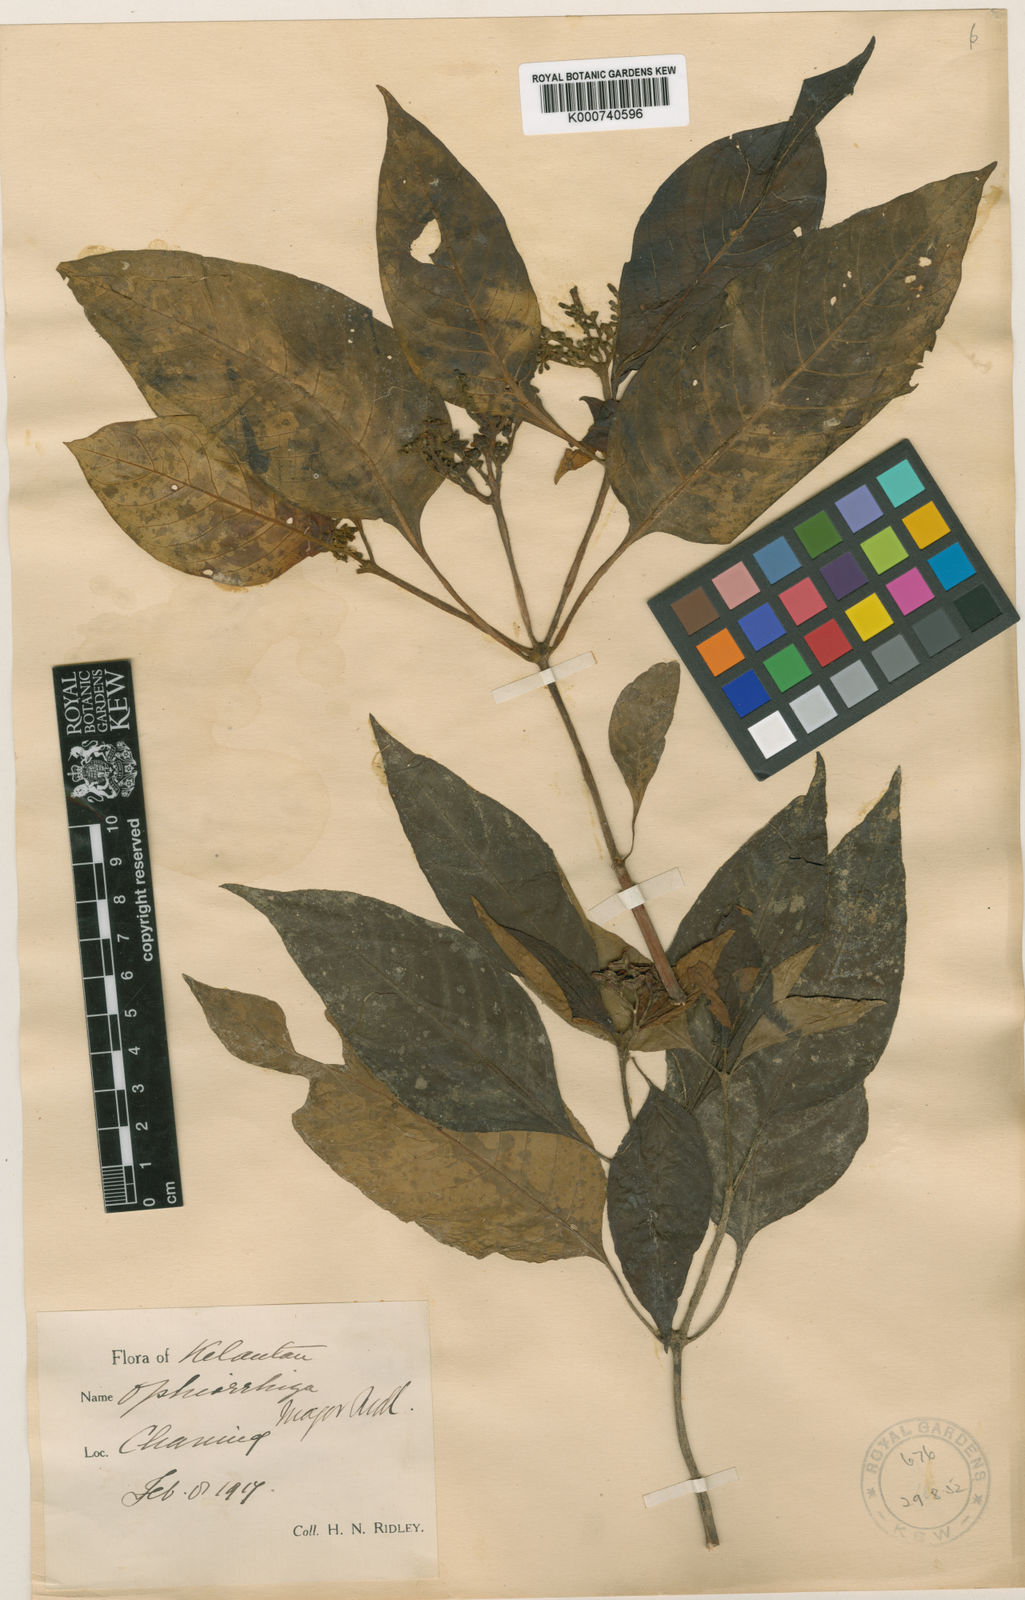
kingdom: Plantae
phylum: Tracheophyta
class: Magnoliopsida
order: Gentianales
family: Rubiaceae
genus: Ophiorrhiza
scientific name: Ophiorrhiza major
